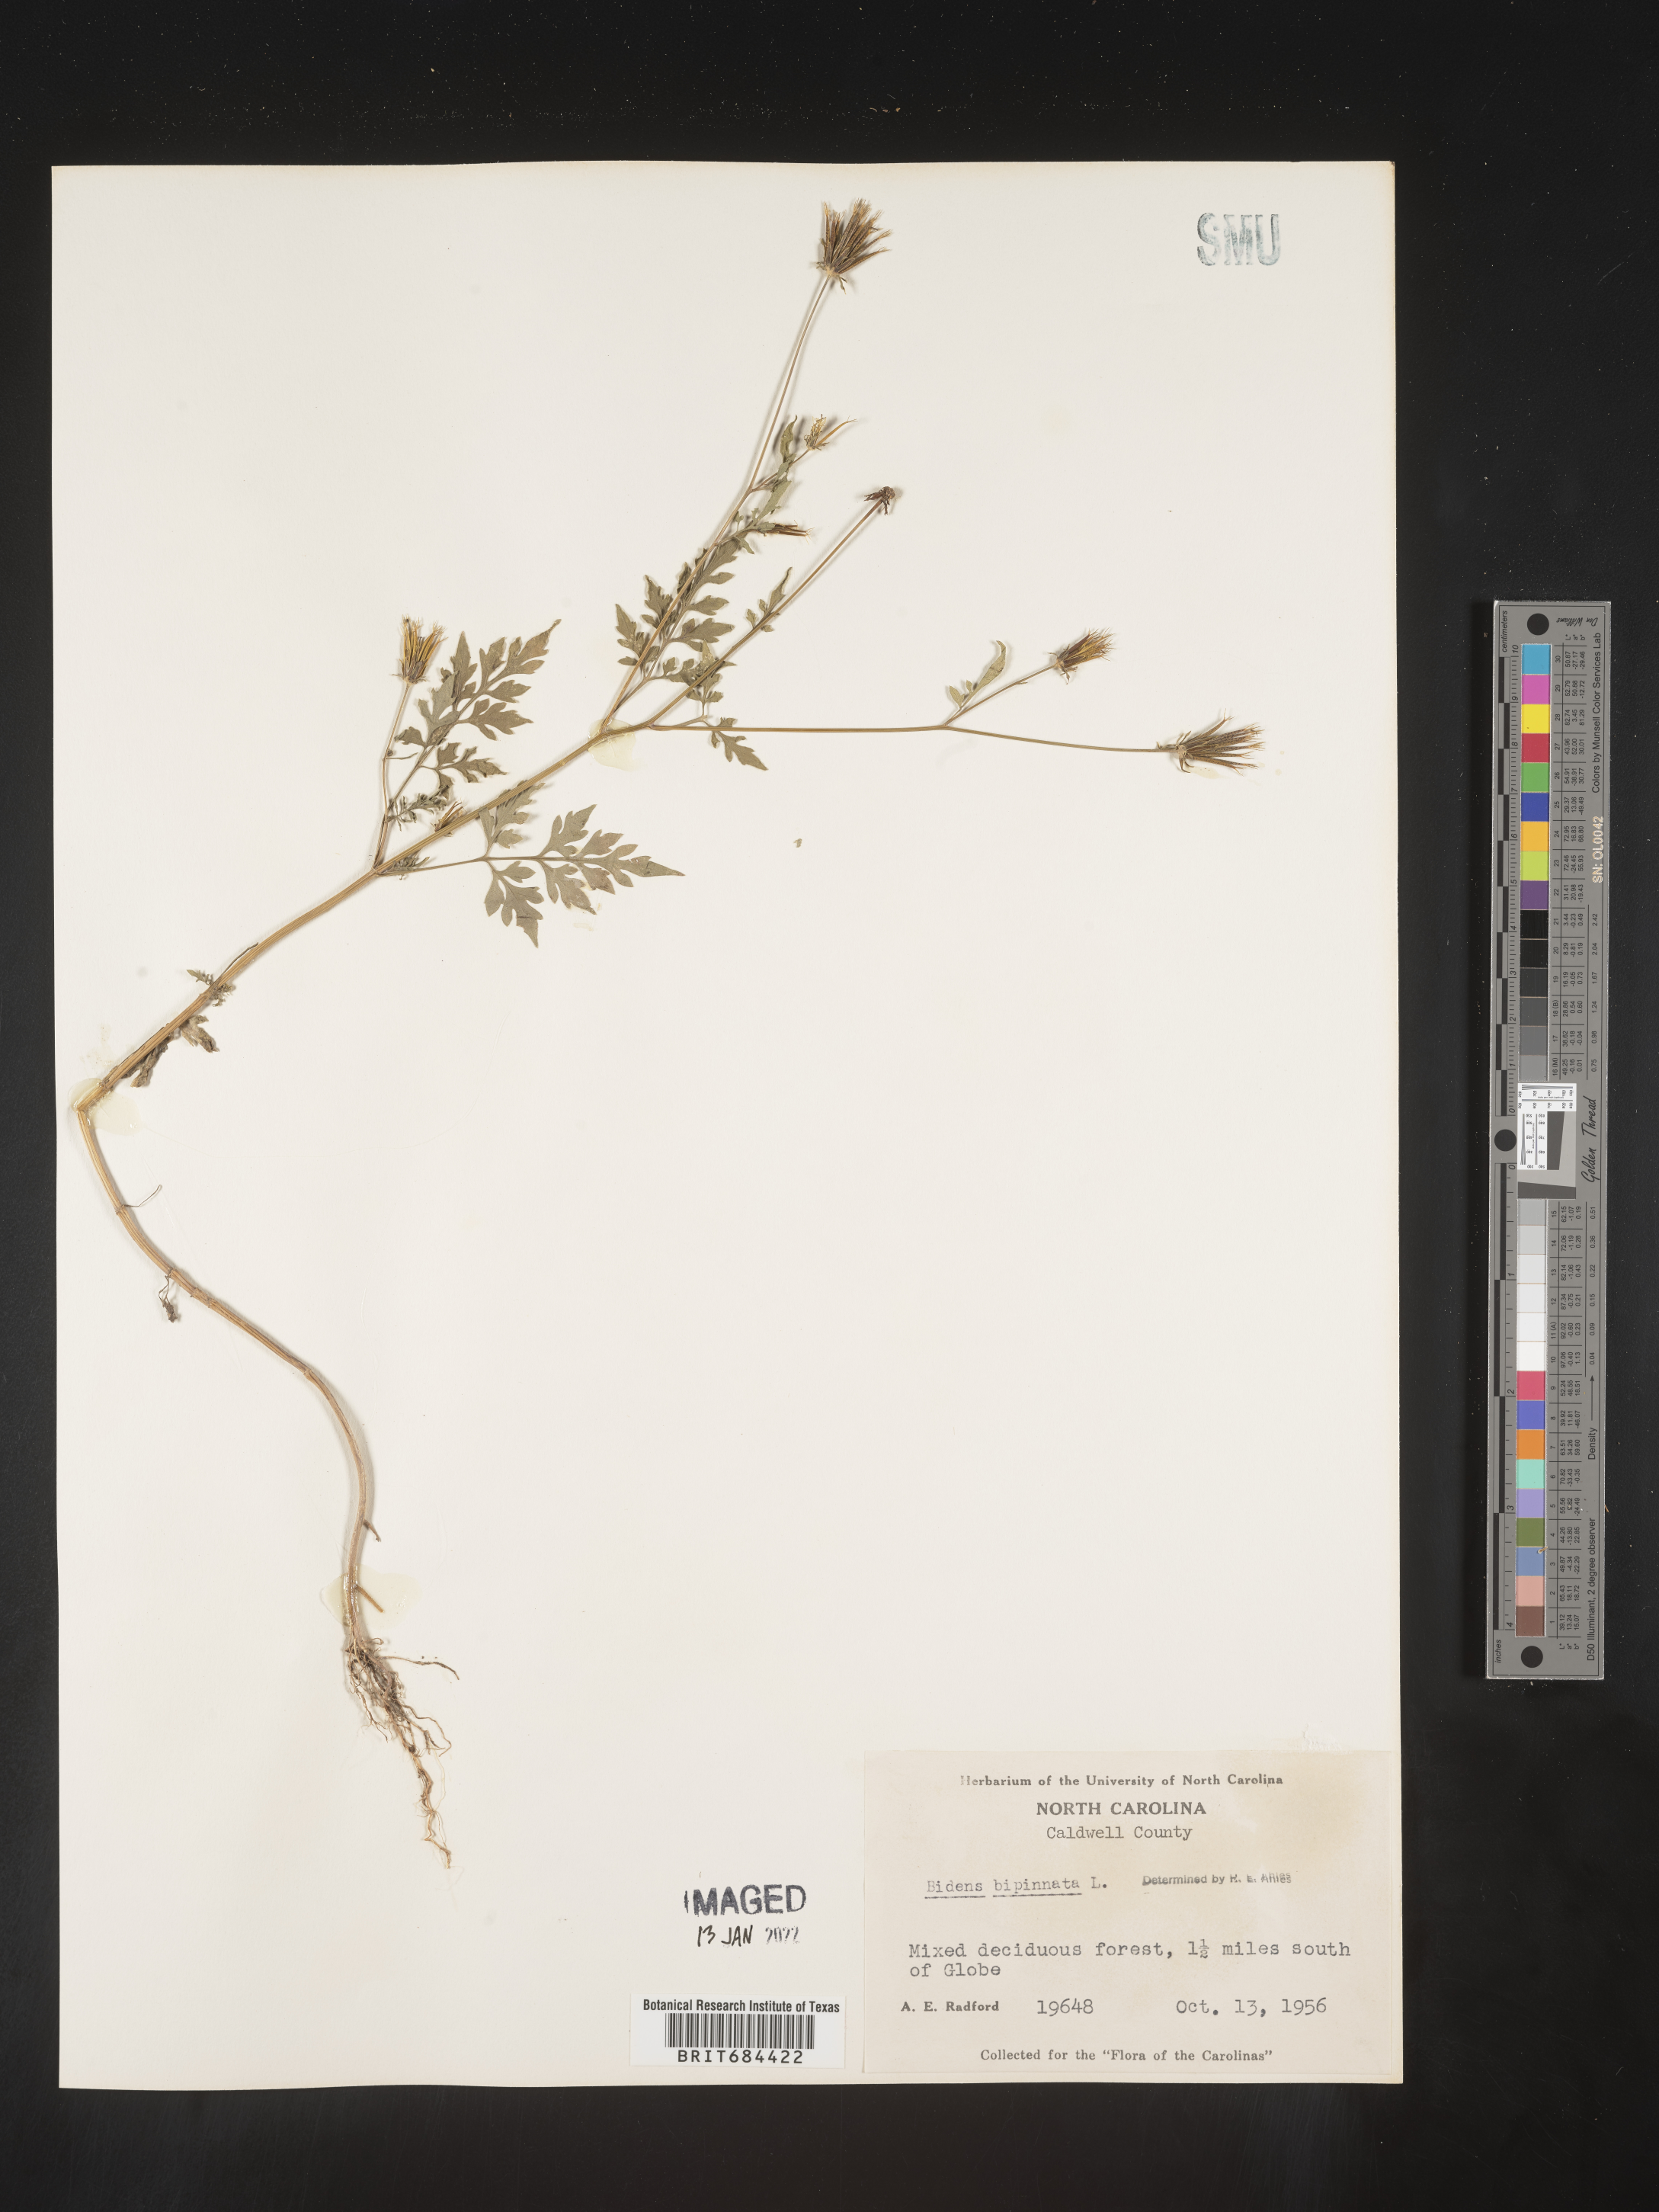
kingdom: Plantae
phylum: Tracheophyta
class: Magnoliopsida
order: Asterales
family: Asteraceae
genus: Bidens
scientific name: Bidens bipinnata
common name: Spanish-needles
